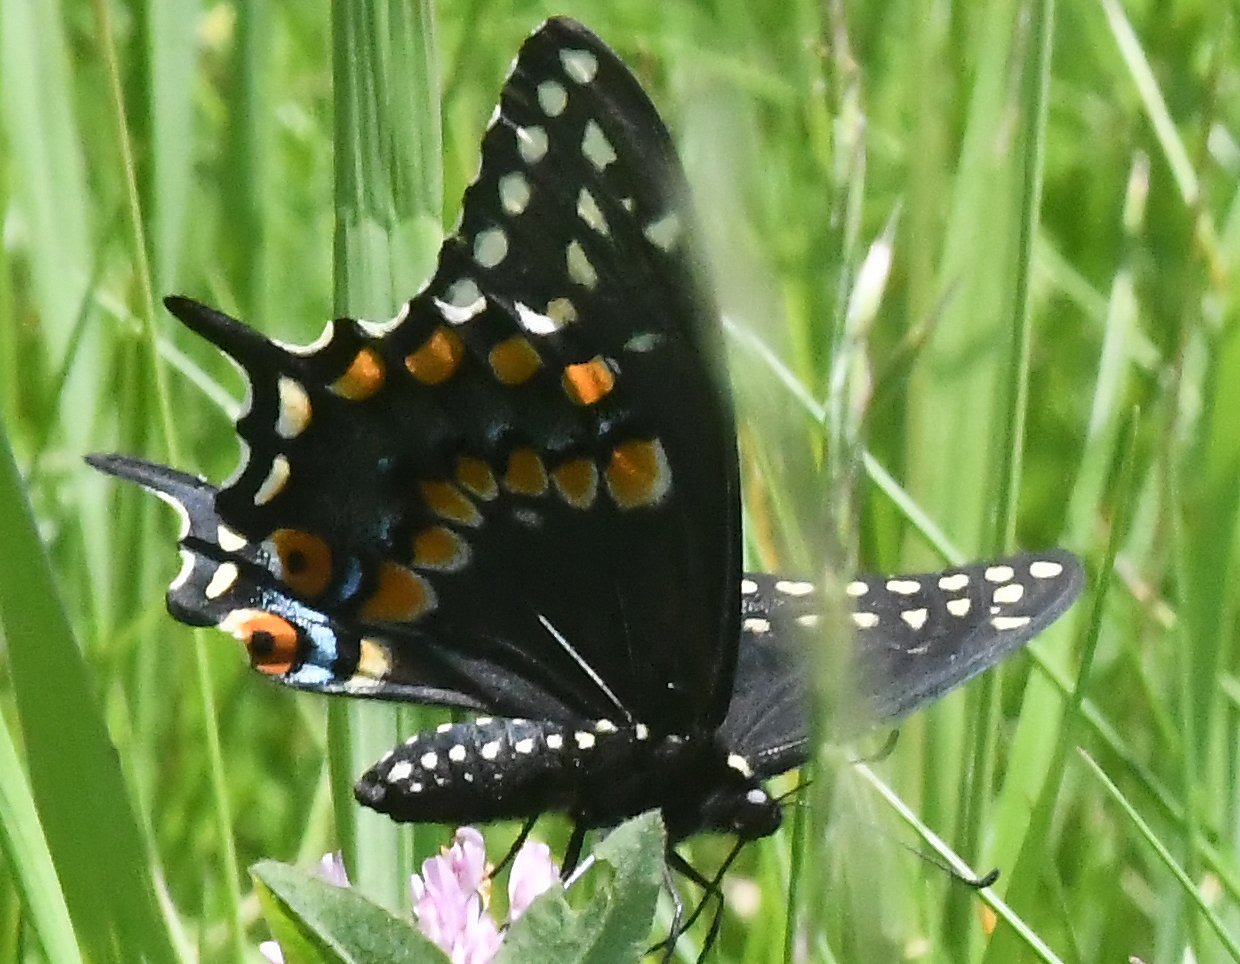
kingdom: Animalia
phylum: Arthropoda
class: Insecta
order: Lepidoptera
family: Papilionidae
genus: Papilio
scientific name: Papilio polyxenes
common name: Black Swallowtail
